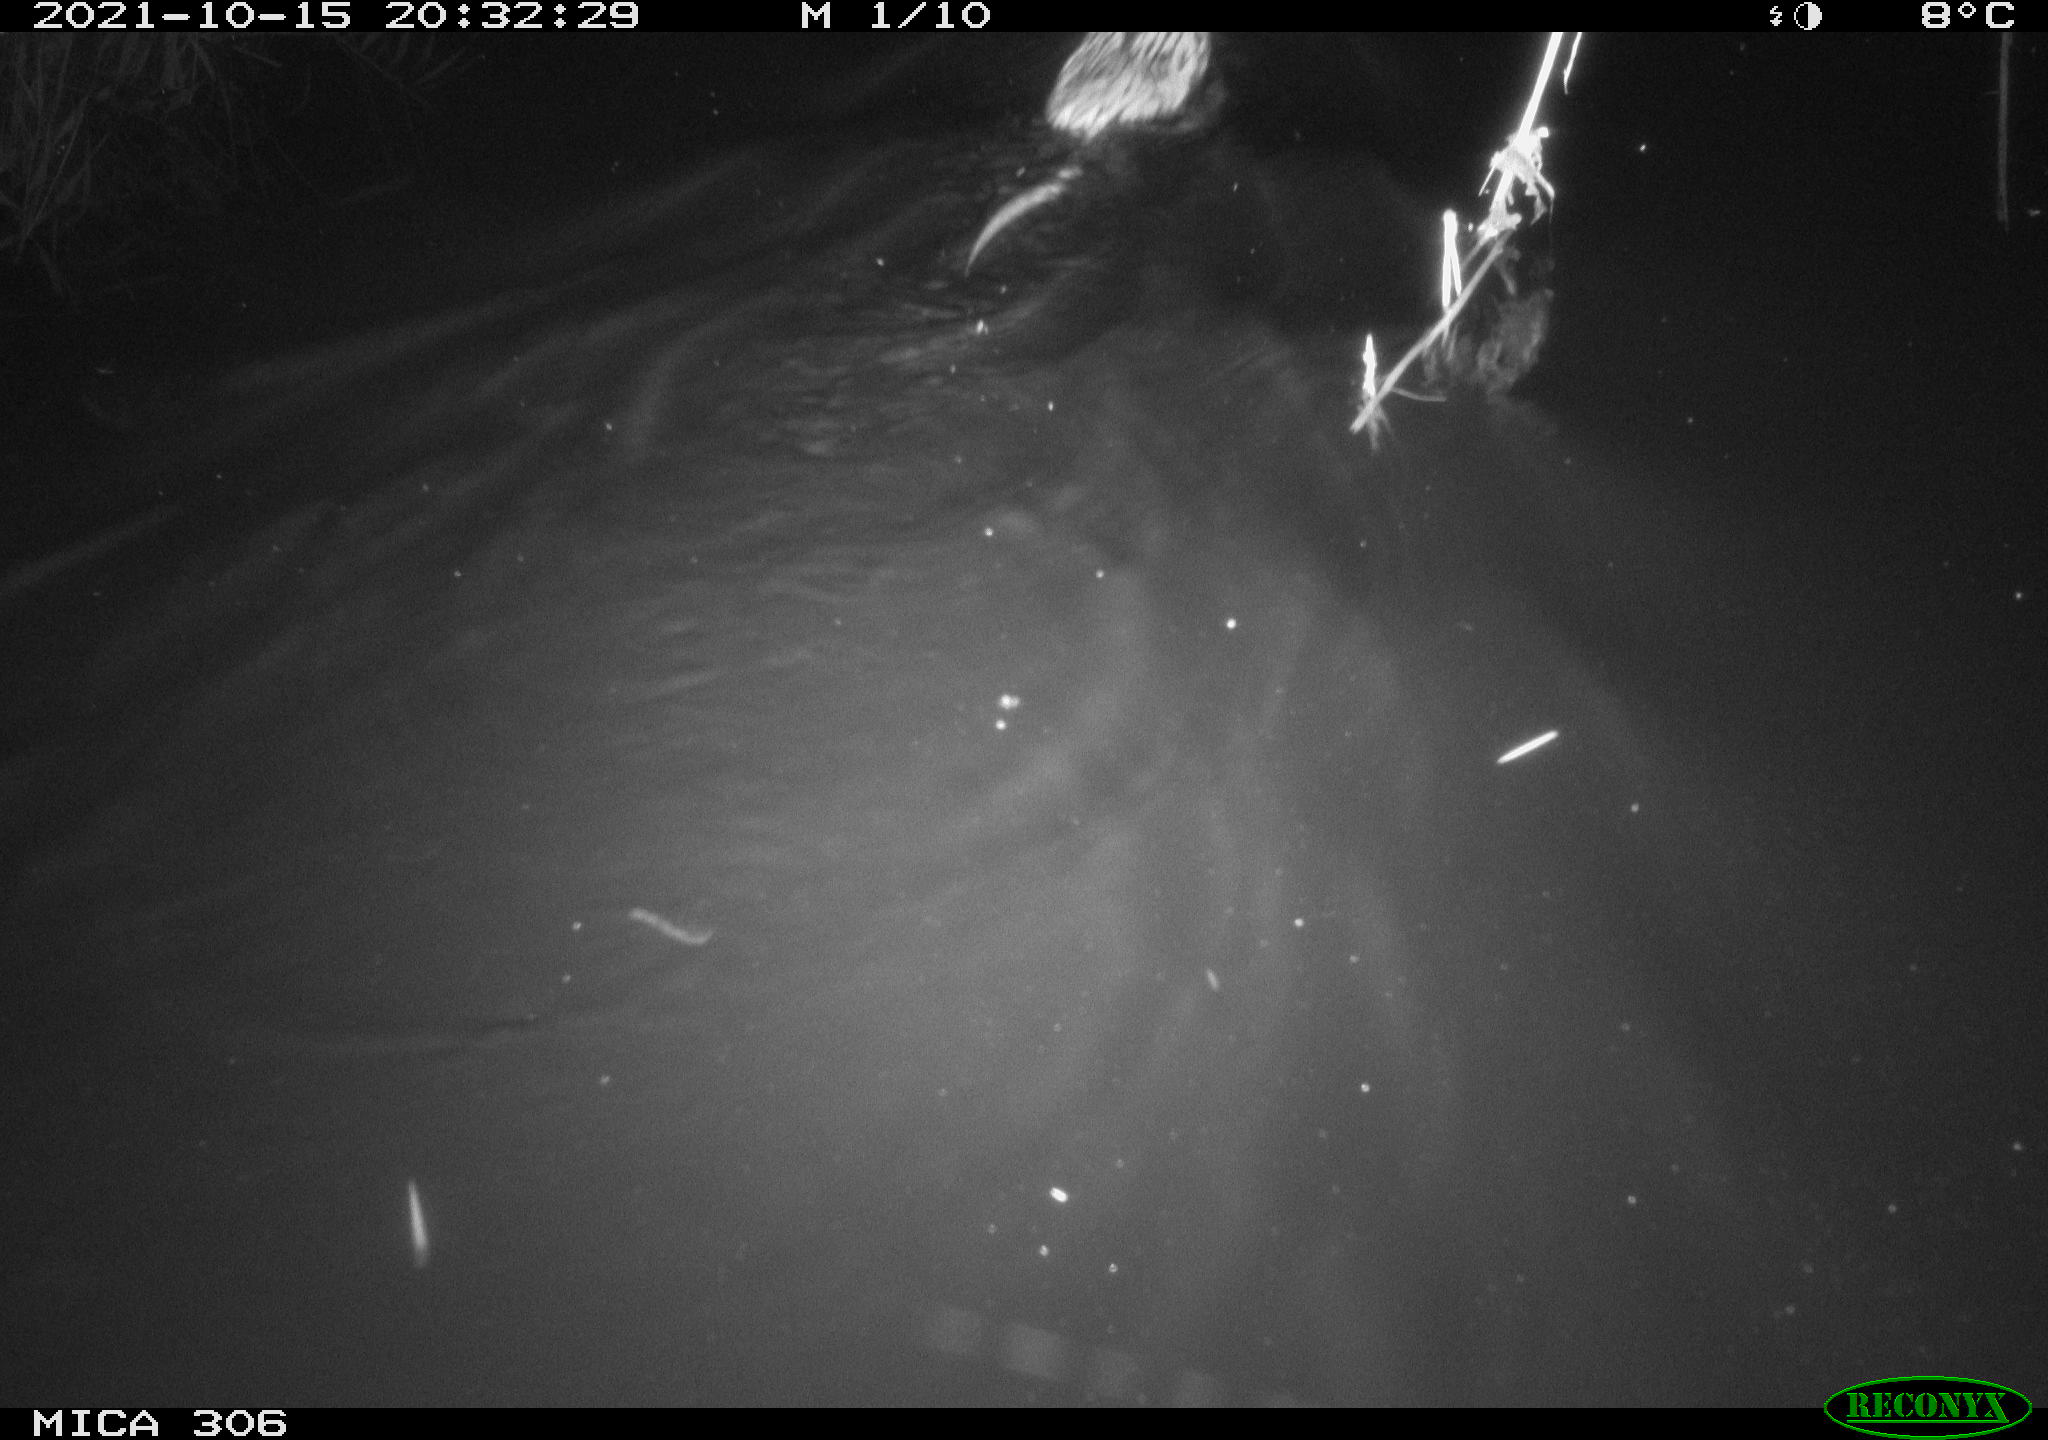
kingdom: Animalia
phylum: Chordata
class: Mammalia
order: Rodentia
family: Cricetidae
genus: Ondatra
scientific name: Ondatra zibethicus
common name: Muskrat
